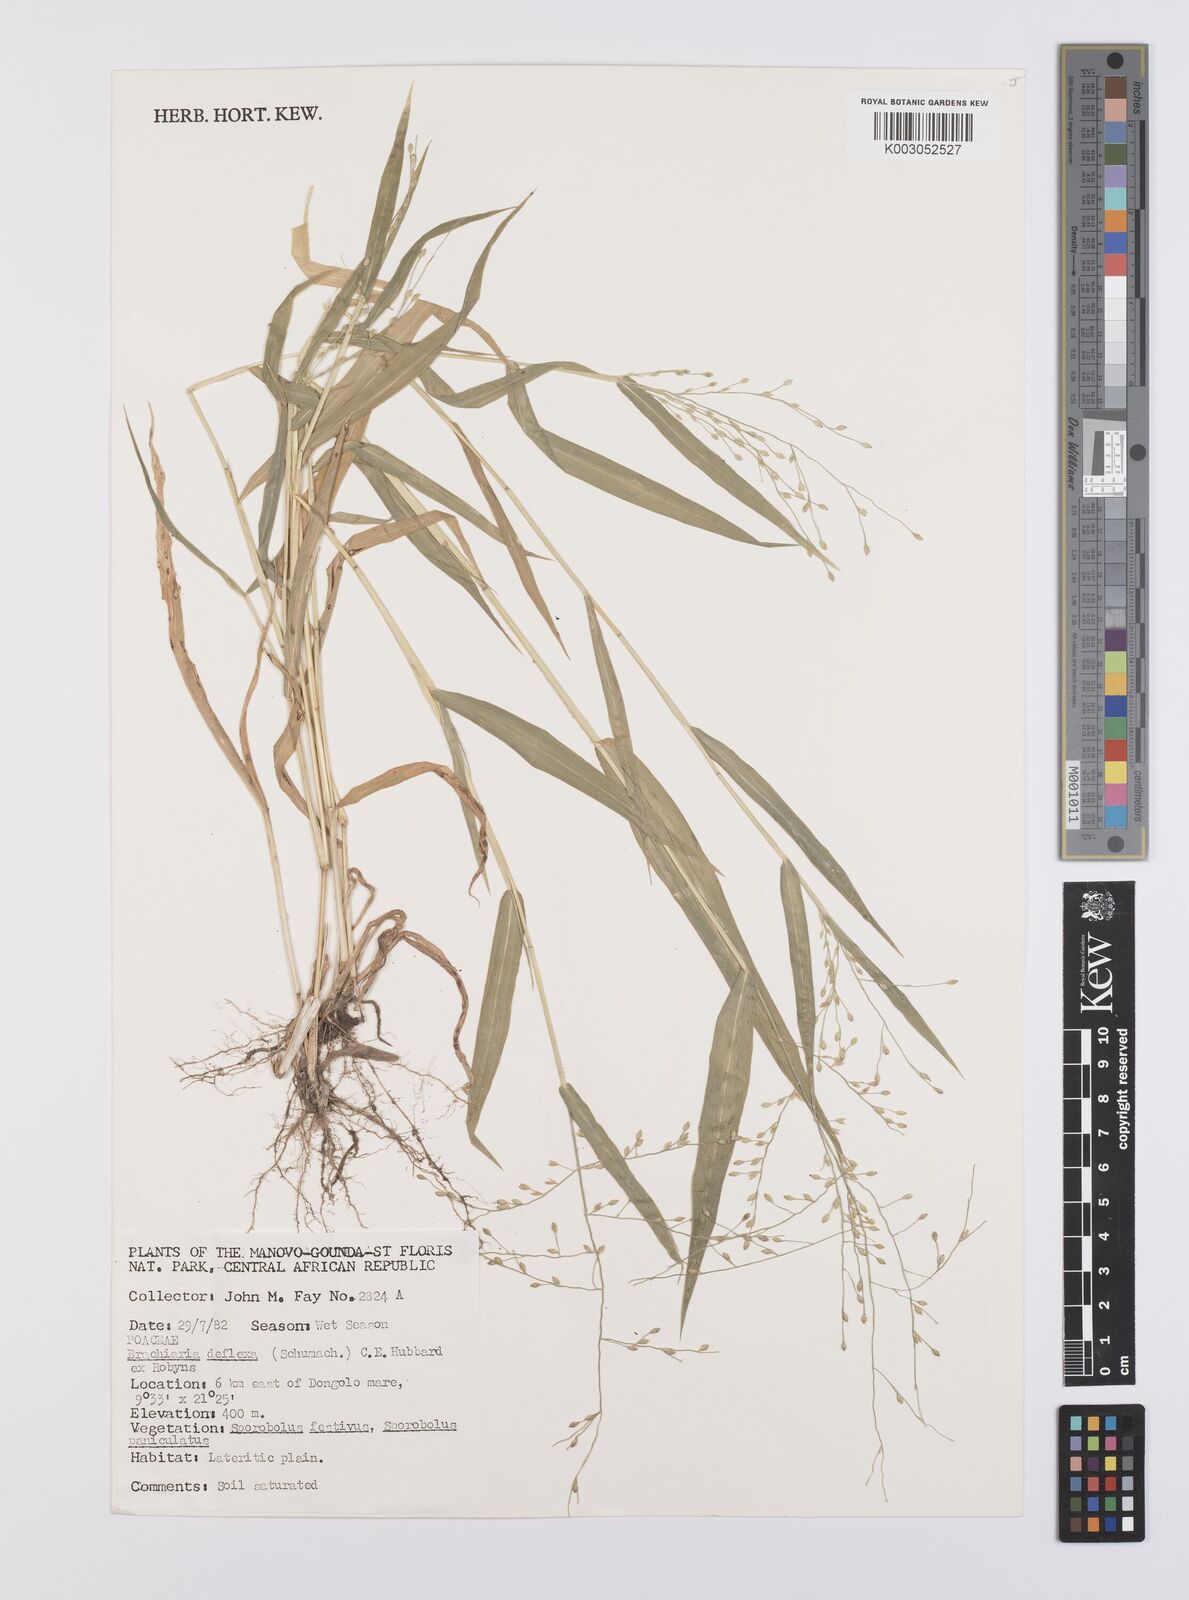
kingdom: Plantae
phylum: Tracheophyta
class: Liliopsida
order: Poales
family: Poaceae
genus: Urochloa
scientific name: Urochloa deflexa
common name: Guinea millet
